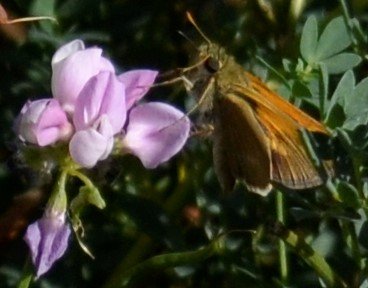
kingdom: Animalia
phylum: Arthropoda
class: Insecta
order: Lepidoptera
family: Hesperiidae
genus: Polites
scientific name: Polites themistocles
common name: Tawny-edged Skipper
